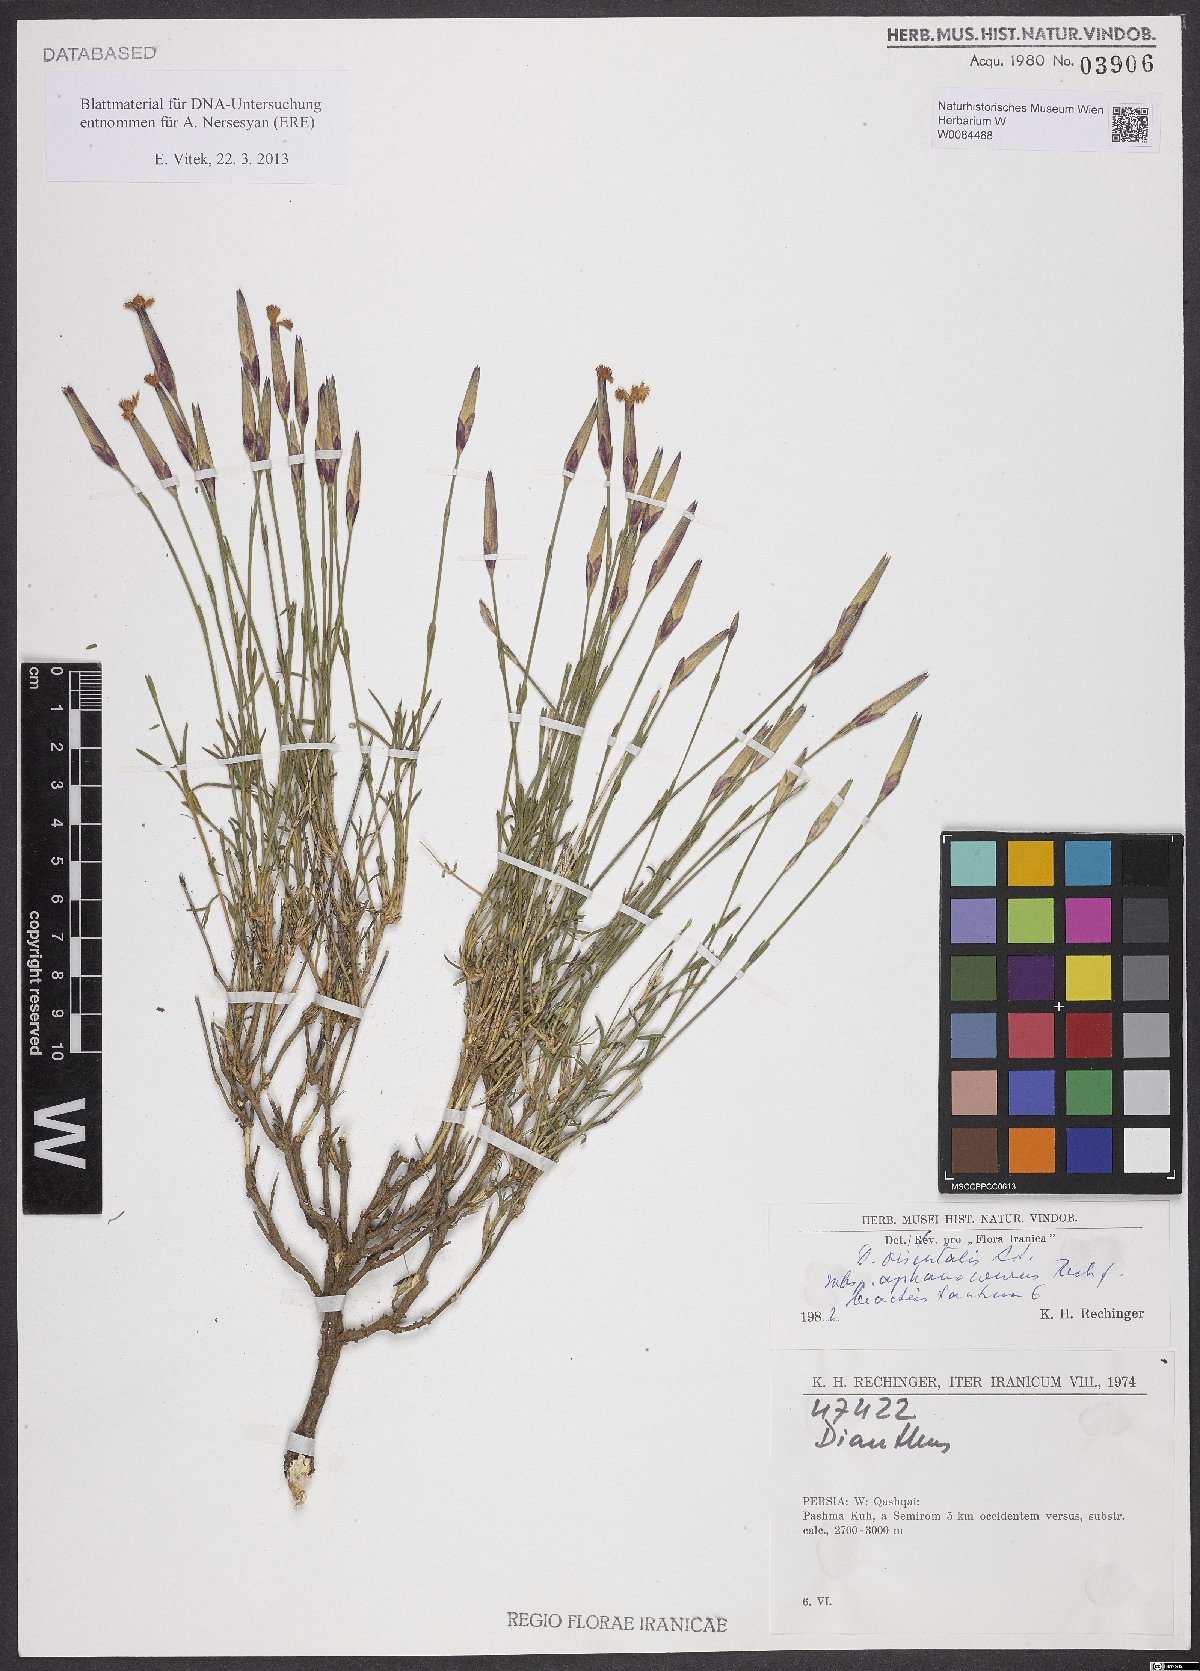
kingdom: Plantae
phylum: Tracheophyta
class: Magnoliopsida
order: Caryophyllales
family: Caryophyllaceae
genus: Dianthus
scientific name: Dianthus orientalis
